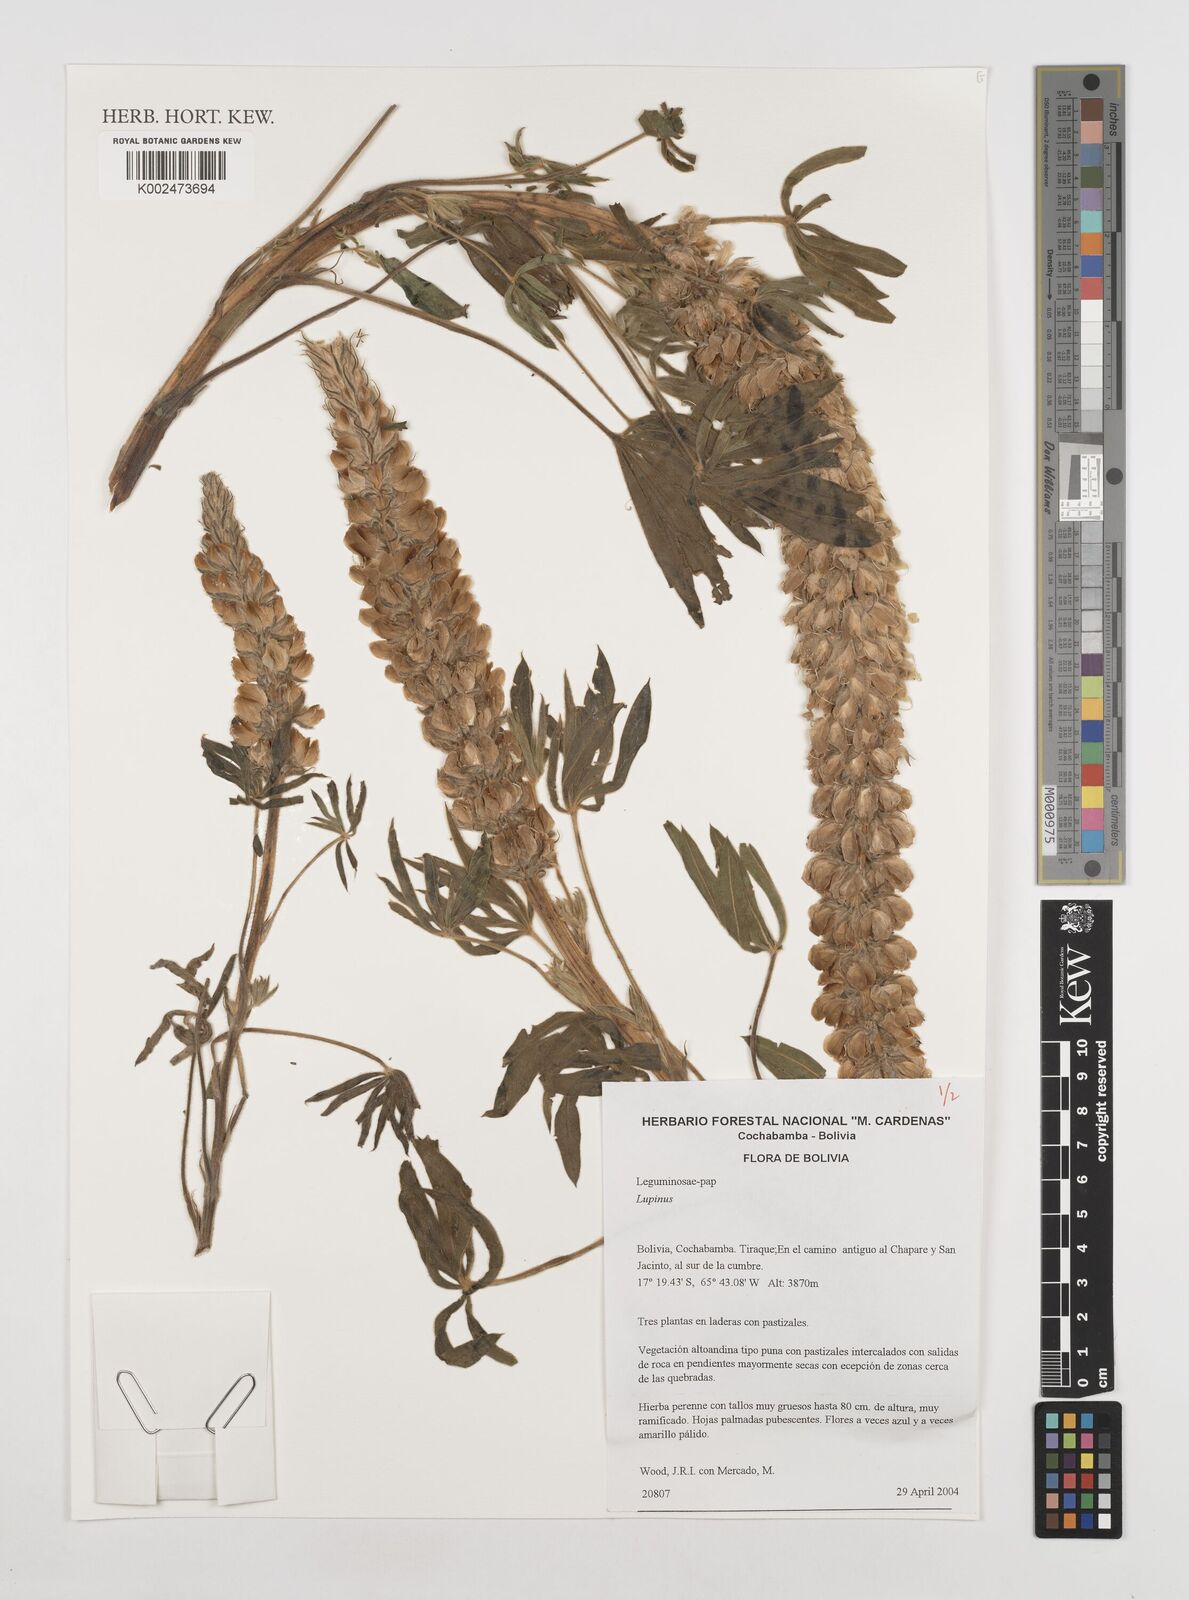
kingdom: Plantae
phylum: Tracheophyta
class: Magnoliopsida
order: Fabales
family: Fabaceae
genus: Lupinus
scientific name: Lupinus
